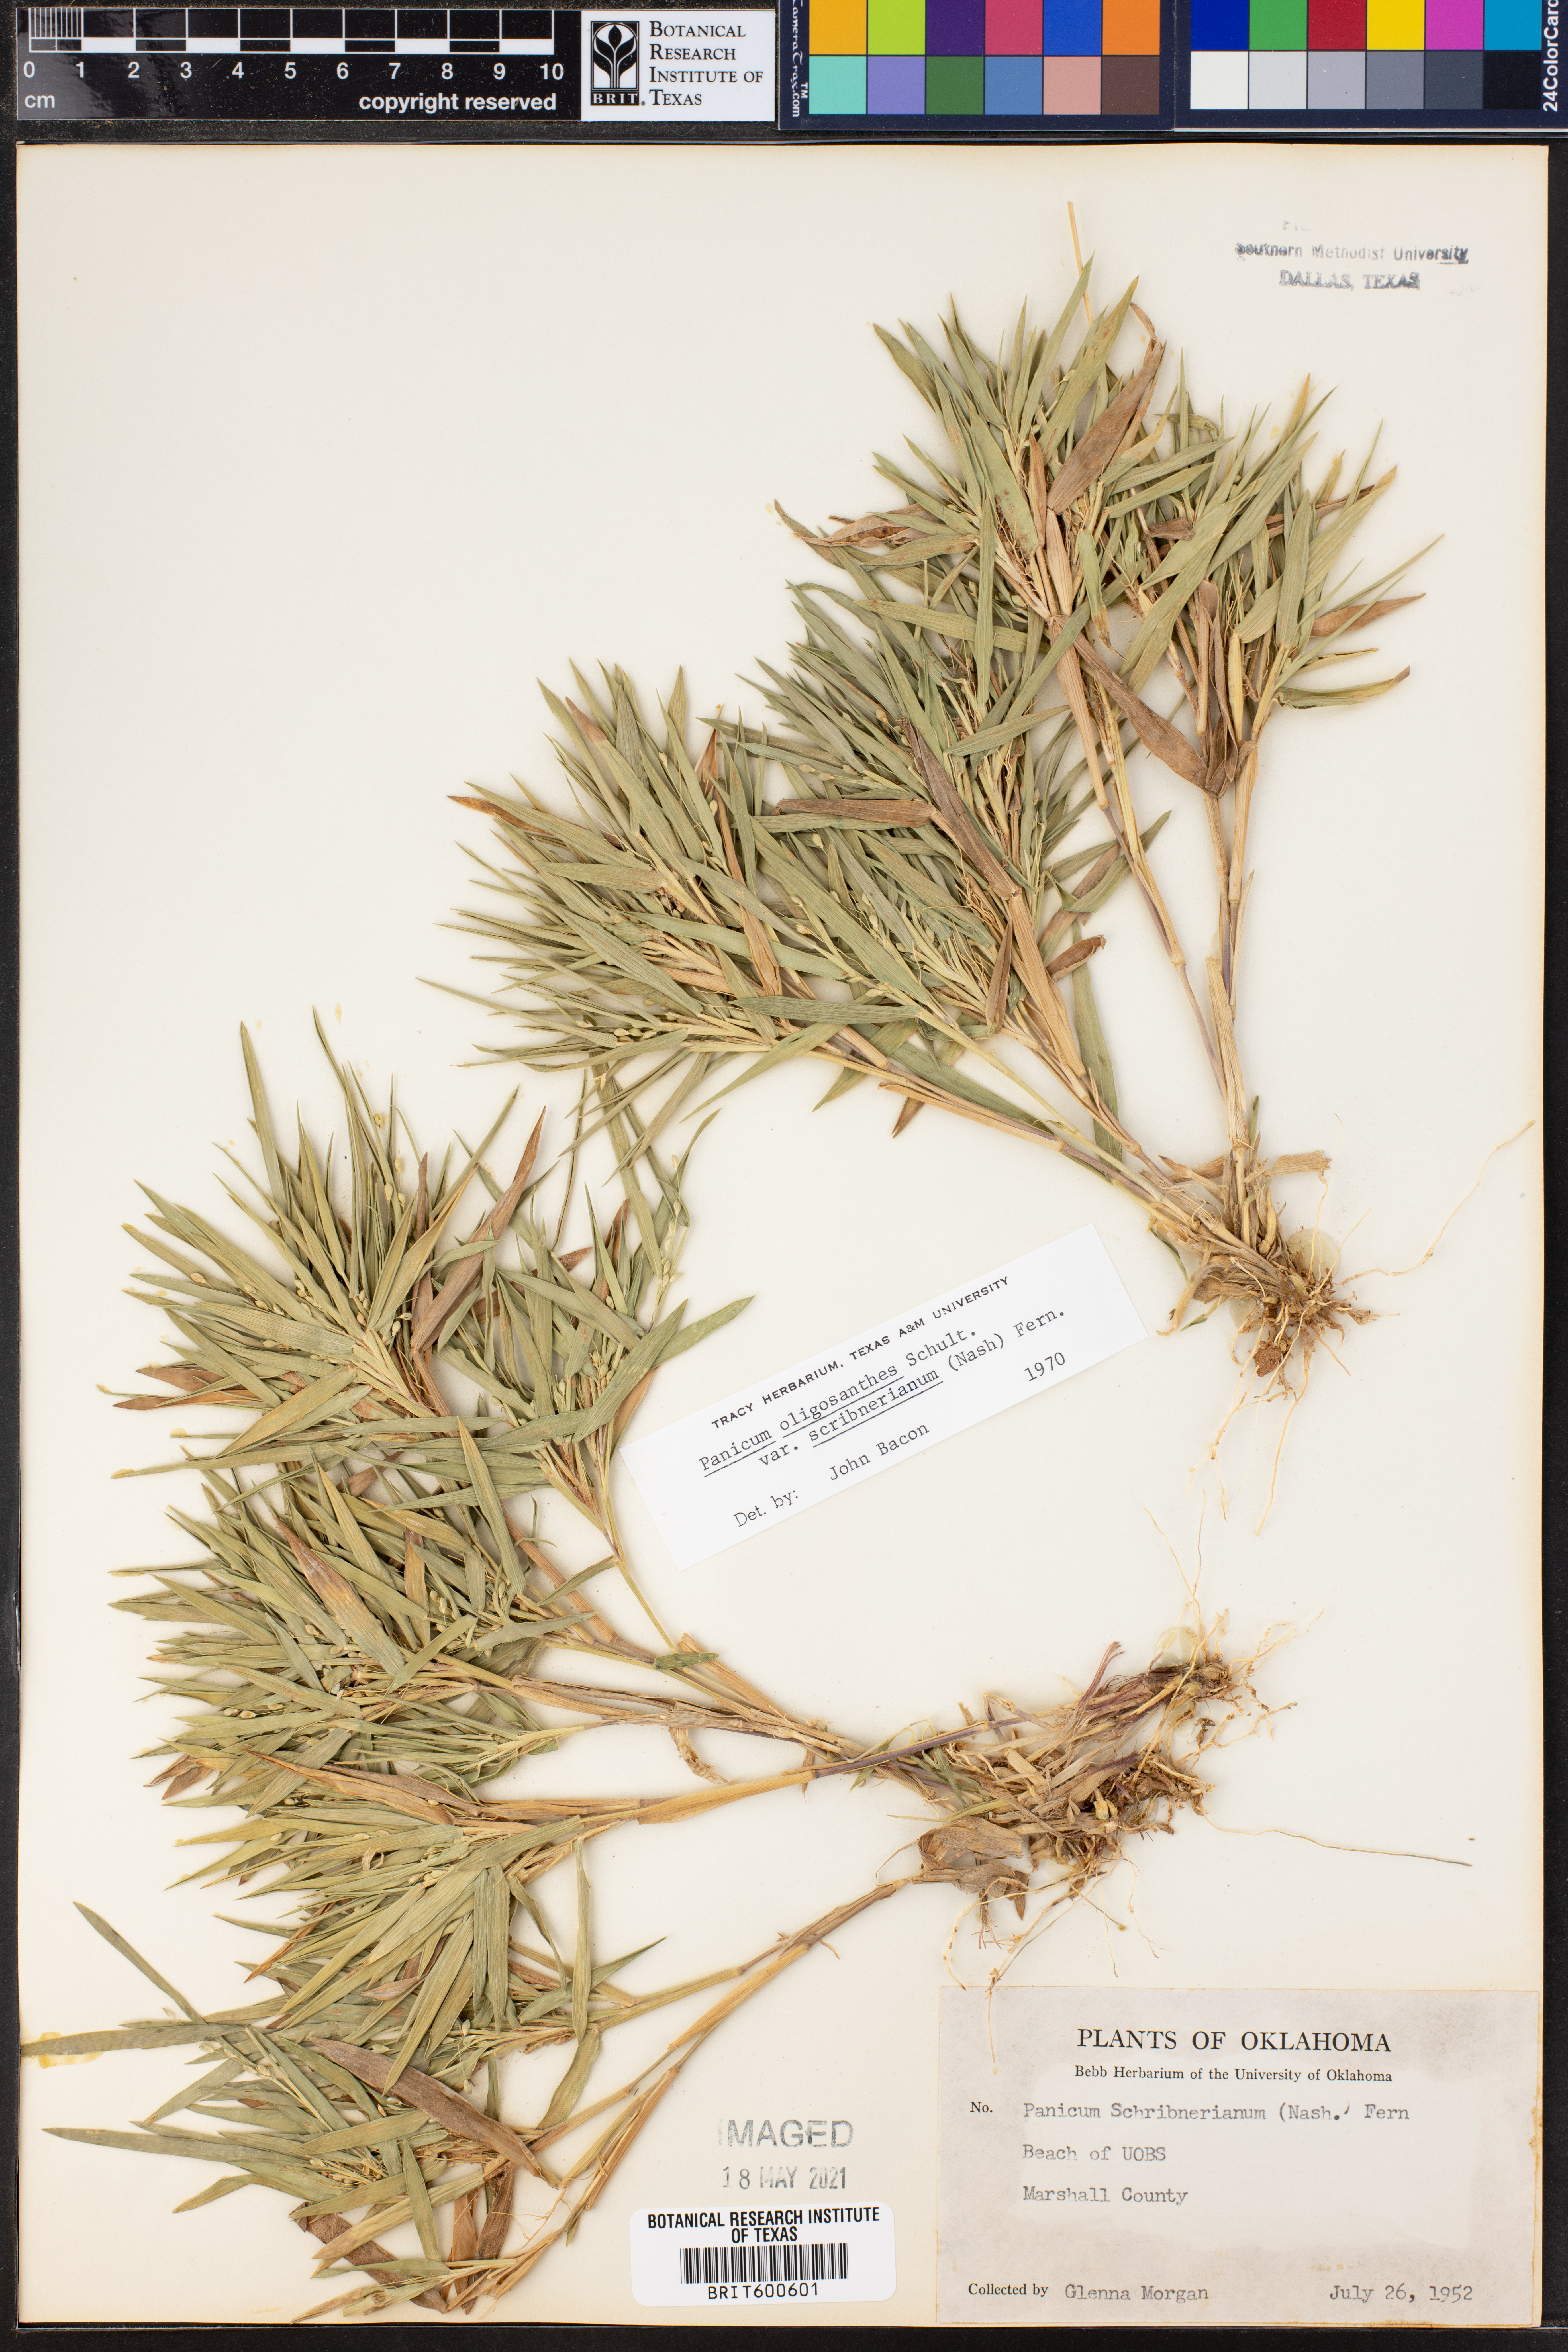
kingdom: Plantae
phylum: Tracheophyta
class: Liliopsida
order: Poales
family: Poaceae
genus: Dichanthelium
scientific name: Dichanthelium scribnerianum
